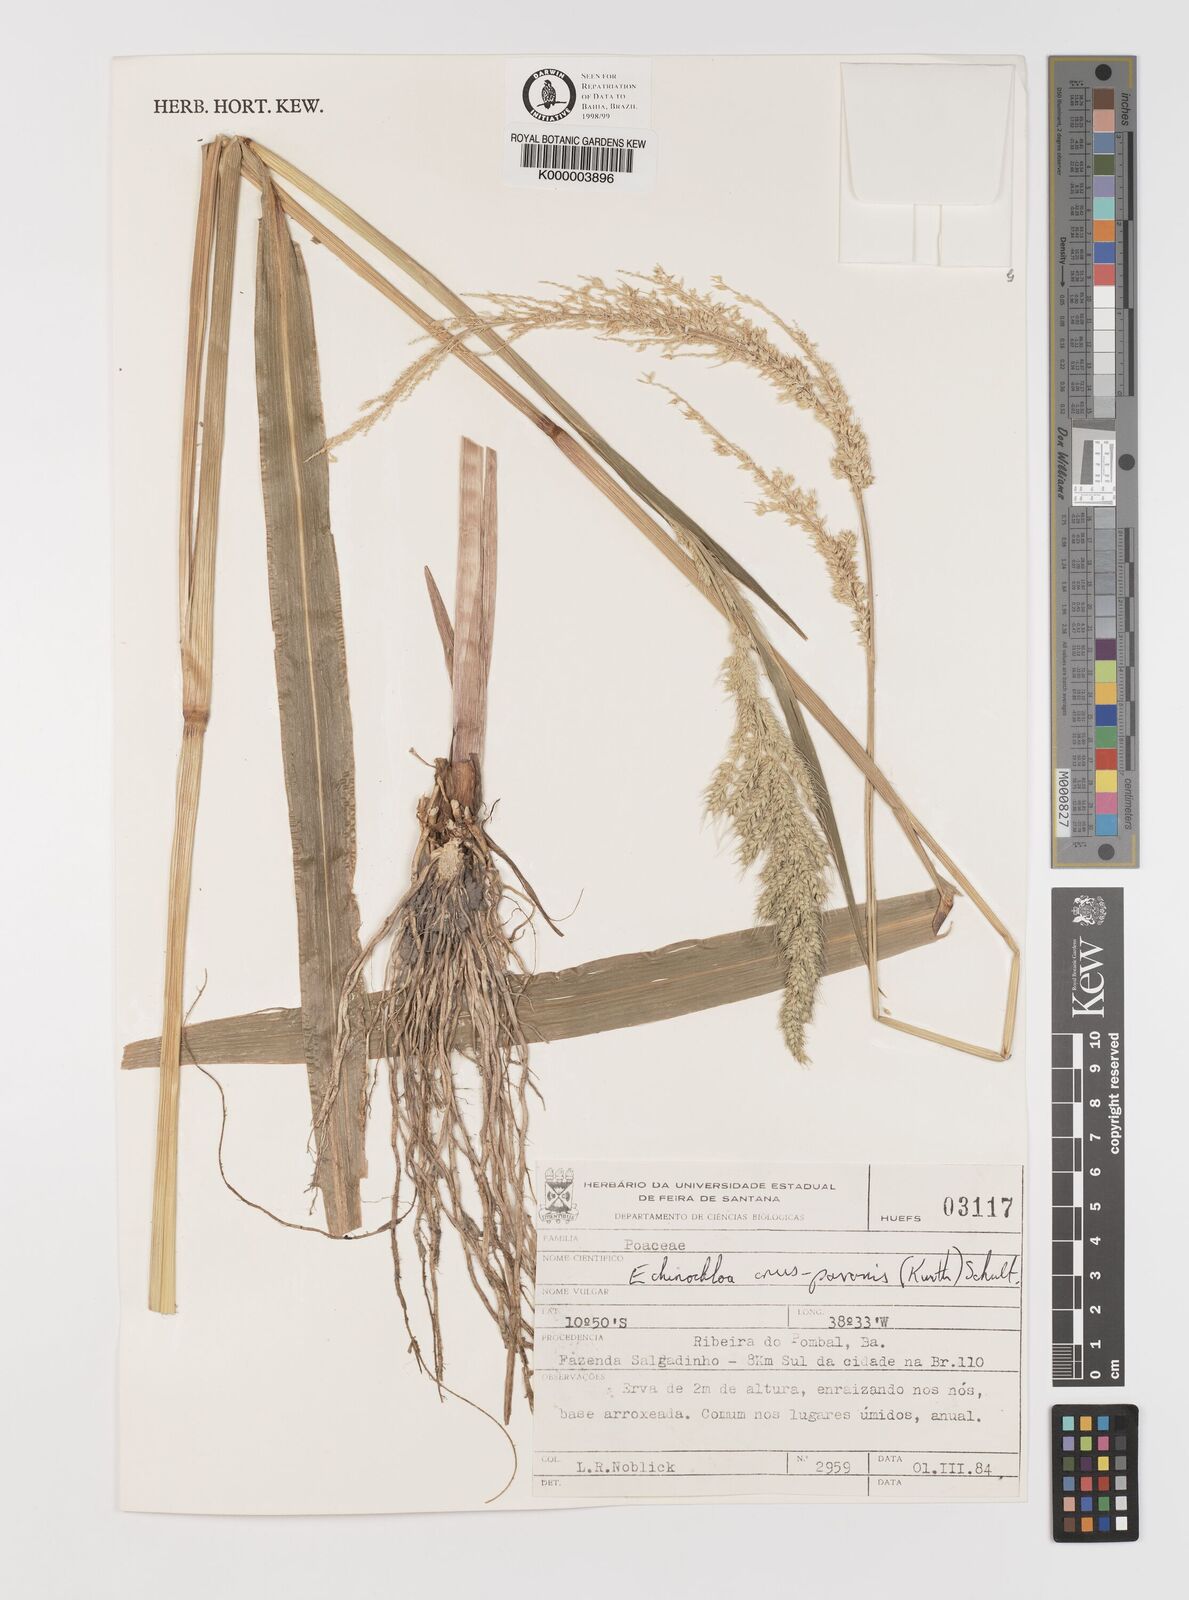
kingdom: Plantae
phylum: Tracheophyta
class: Liliopsida
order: Poales
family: Poaceae
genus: Echinochloa
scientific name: Echinochloa crus-pavonis
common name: Gulf cockspur grass
